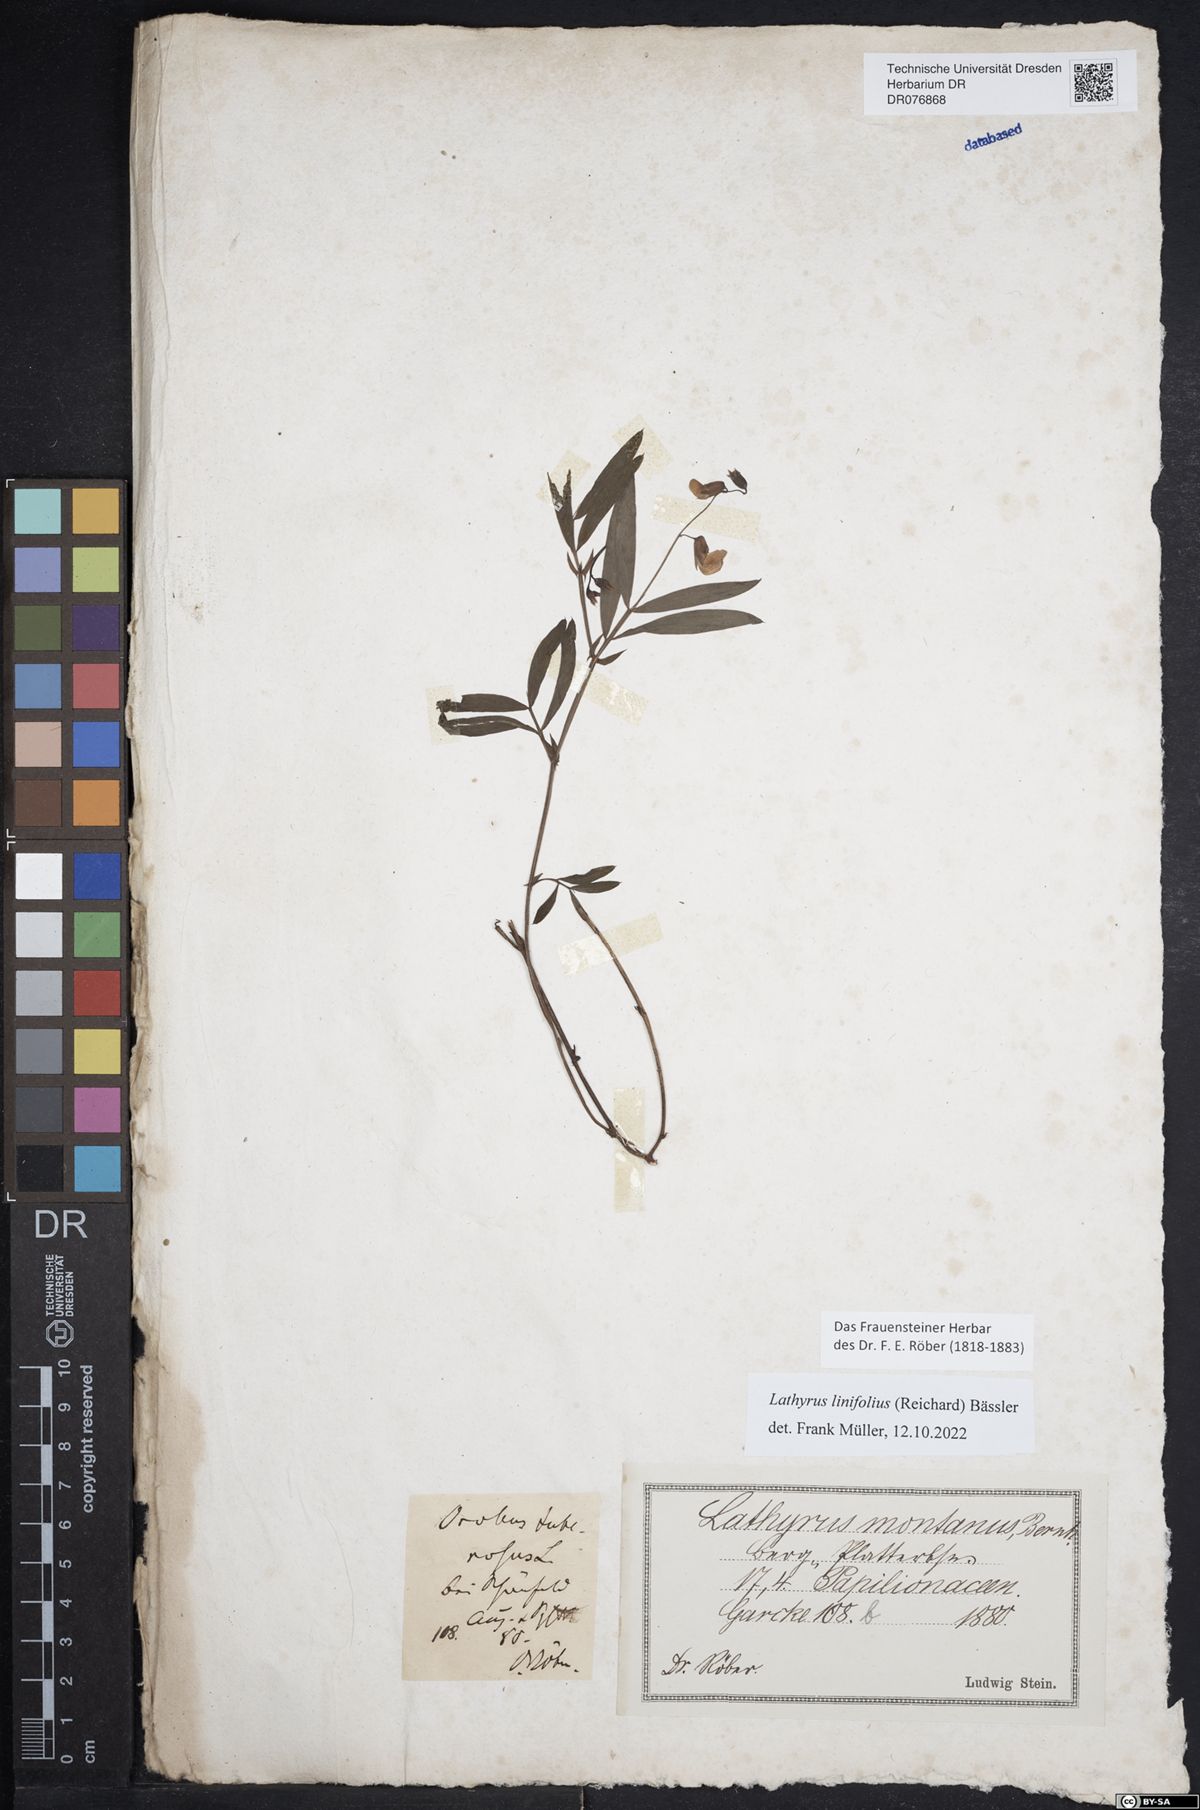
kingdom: Plantae
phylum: Tracheophyta
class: Magnoliopsida
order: Fabales
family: Fabaceae
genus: Lathyrus
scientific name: Lathyrus linifolius
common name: Bitter-vetch
